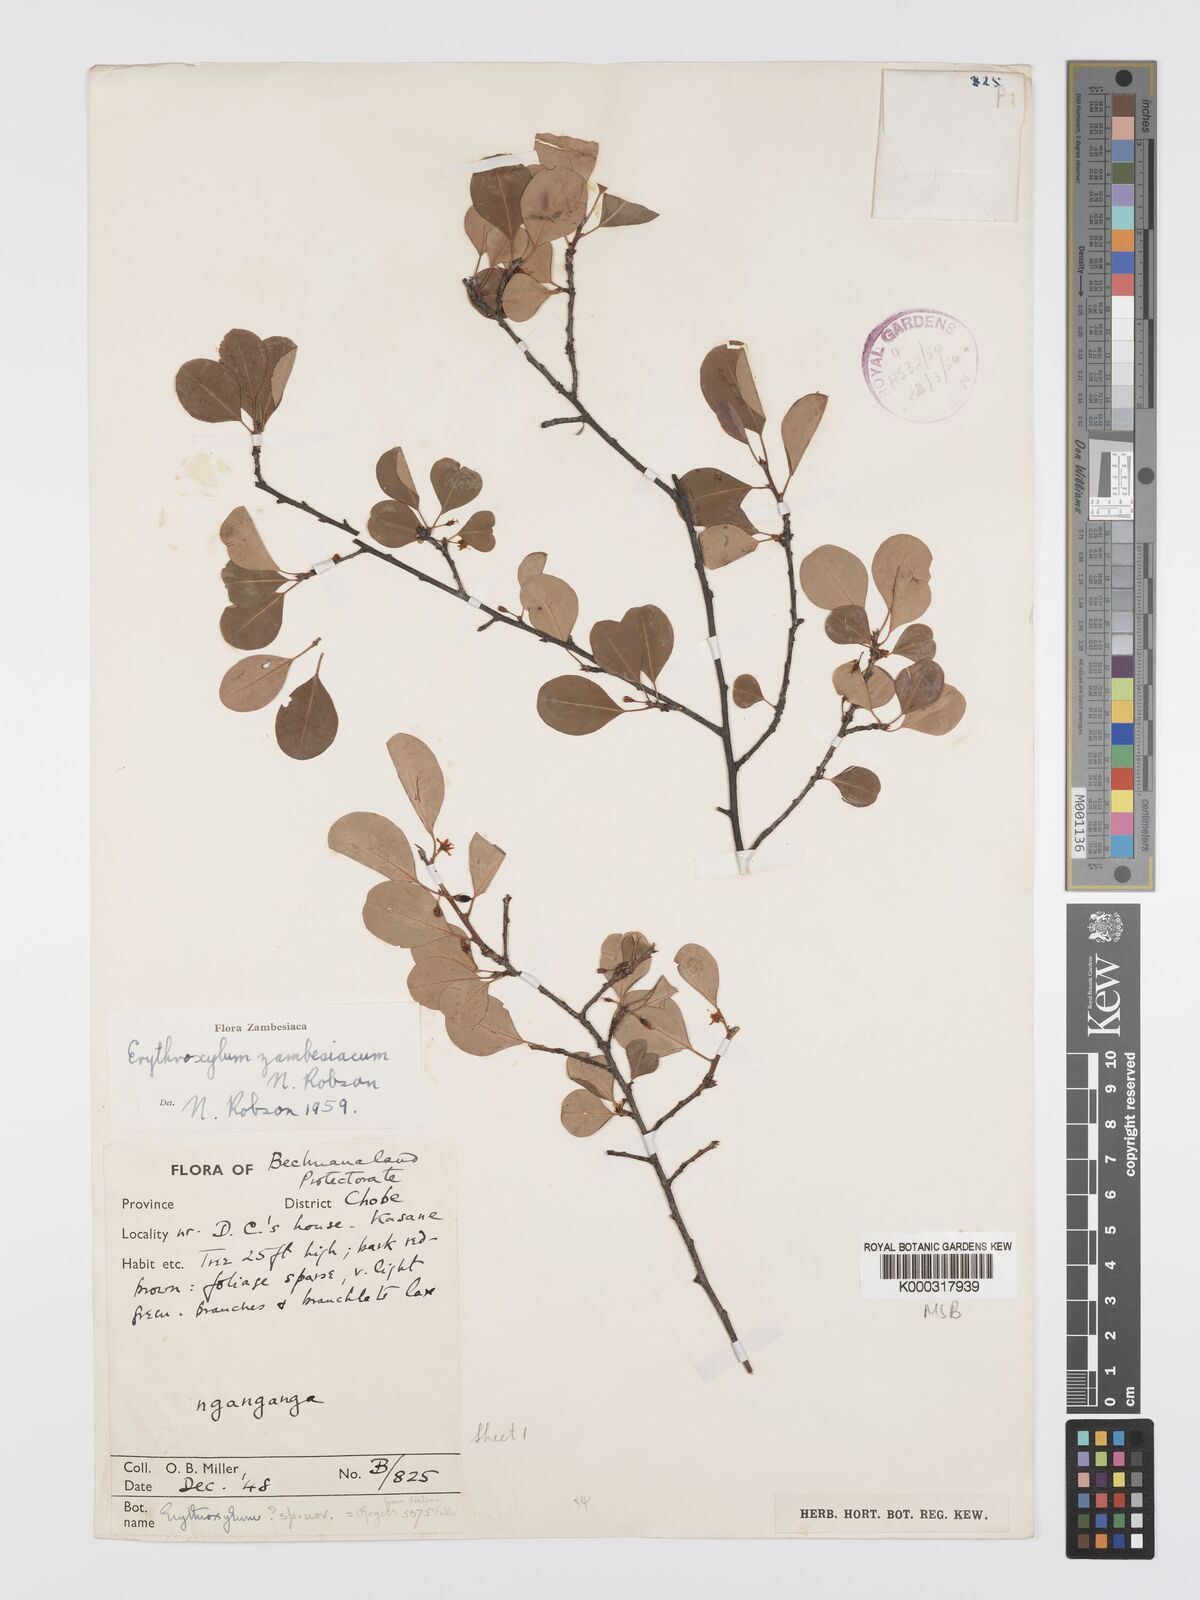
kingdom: Plantae
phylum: Tracheophyta
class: Magnoliopsida
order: Malpighiales
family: Erythroxylaceae
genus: Erythroxylum
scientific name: Erythroxylum zambesiacum
